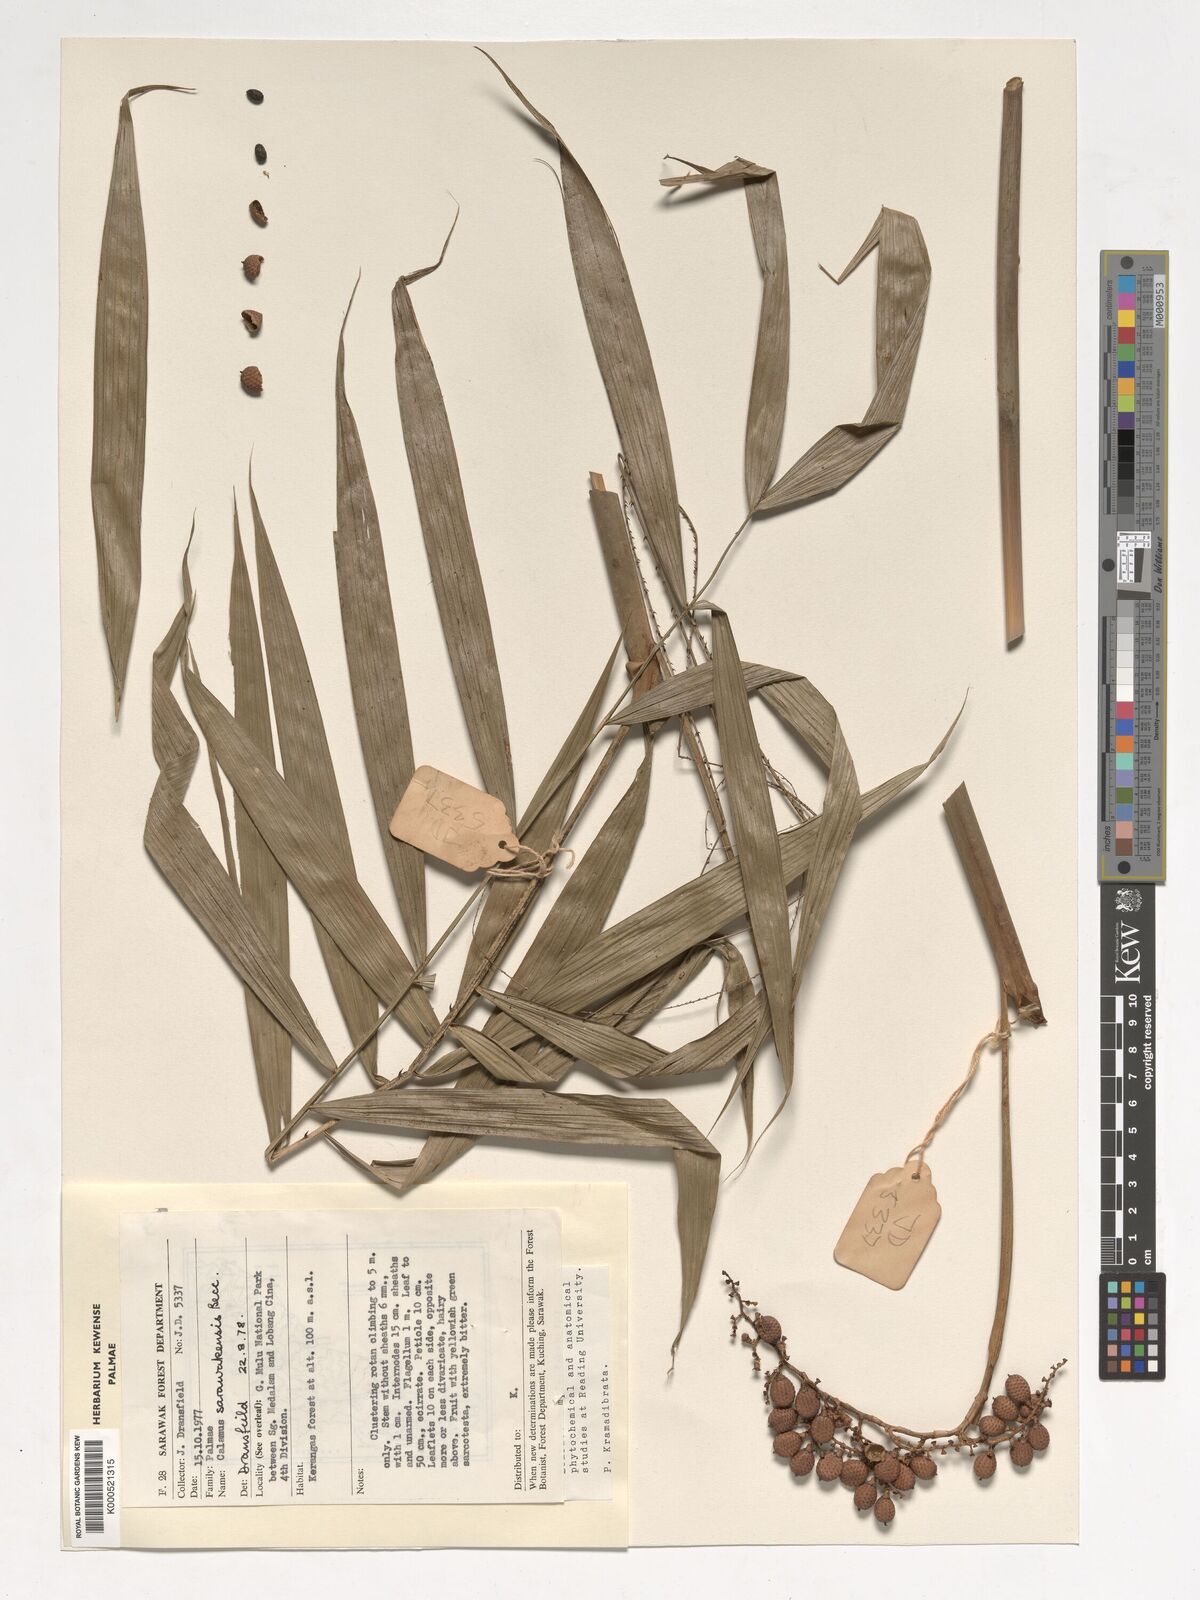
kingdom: Plantae
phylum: Tracheophyta
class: Liliopsida
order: Arecales
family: Arecaceae
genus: Calamus
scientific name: Calamus sarawakensis
